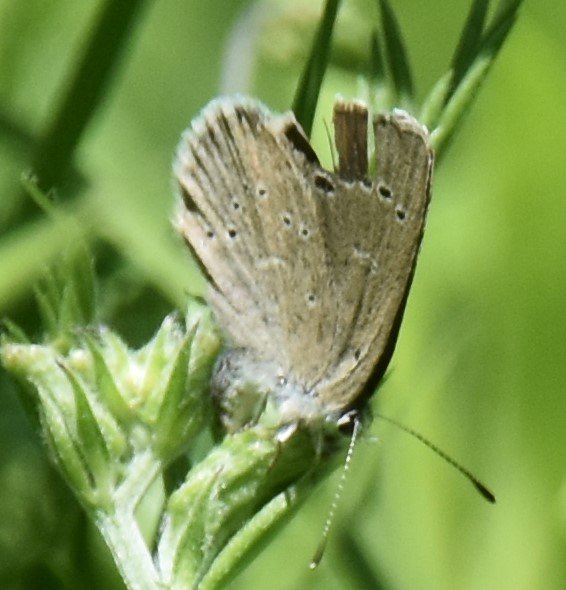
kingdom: Animalia
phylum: Arthropoda
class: Insecta
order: Lepidoptera
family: Lycaenidae
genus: Glaucopsyche
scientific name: Glaucopsyche lygdamus
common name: Silvery Blue
